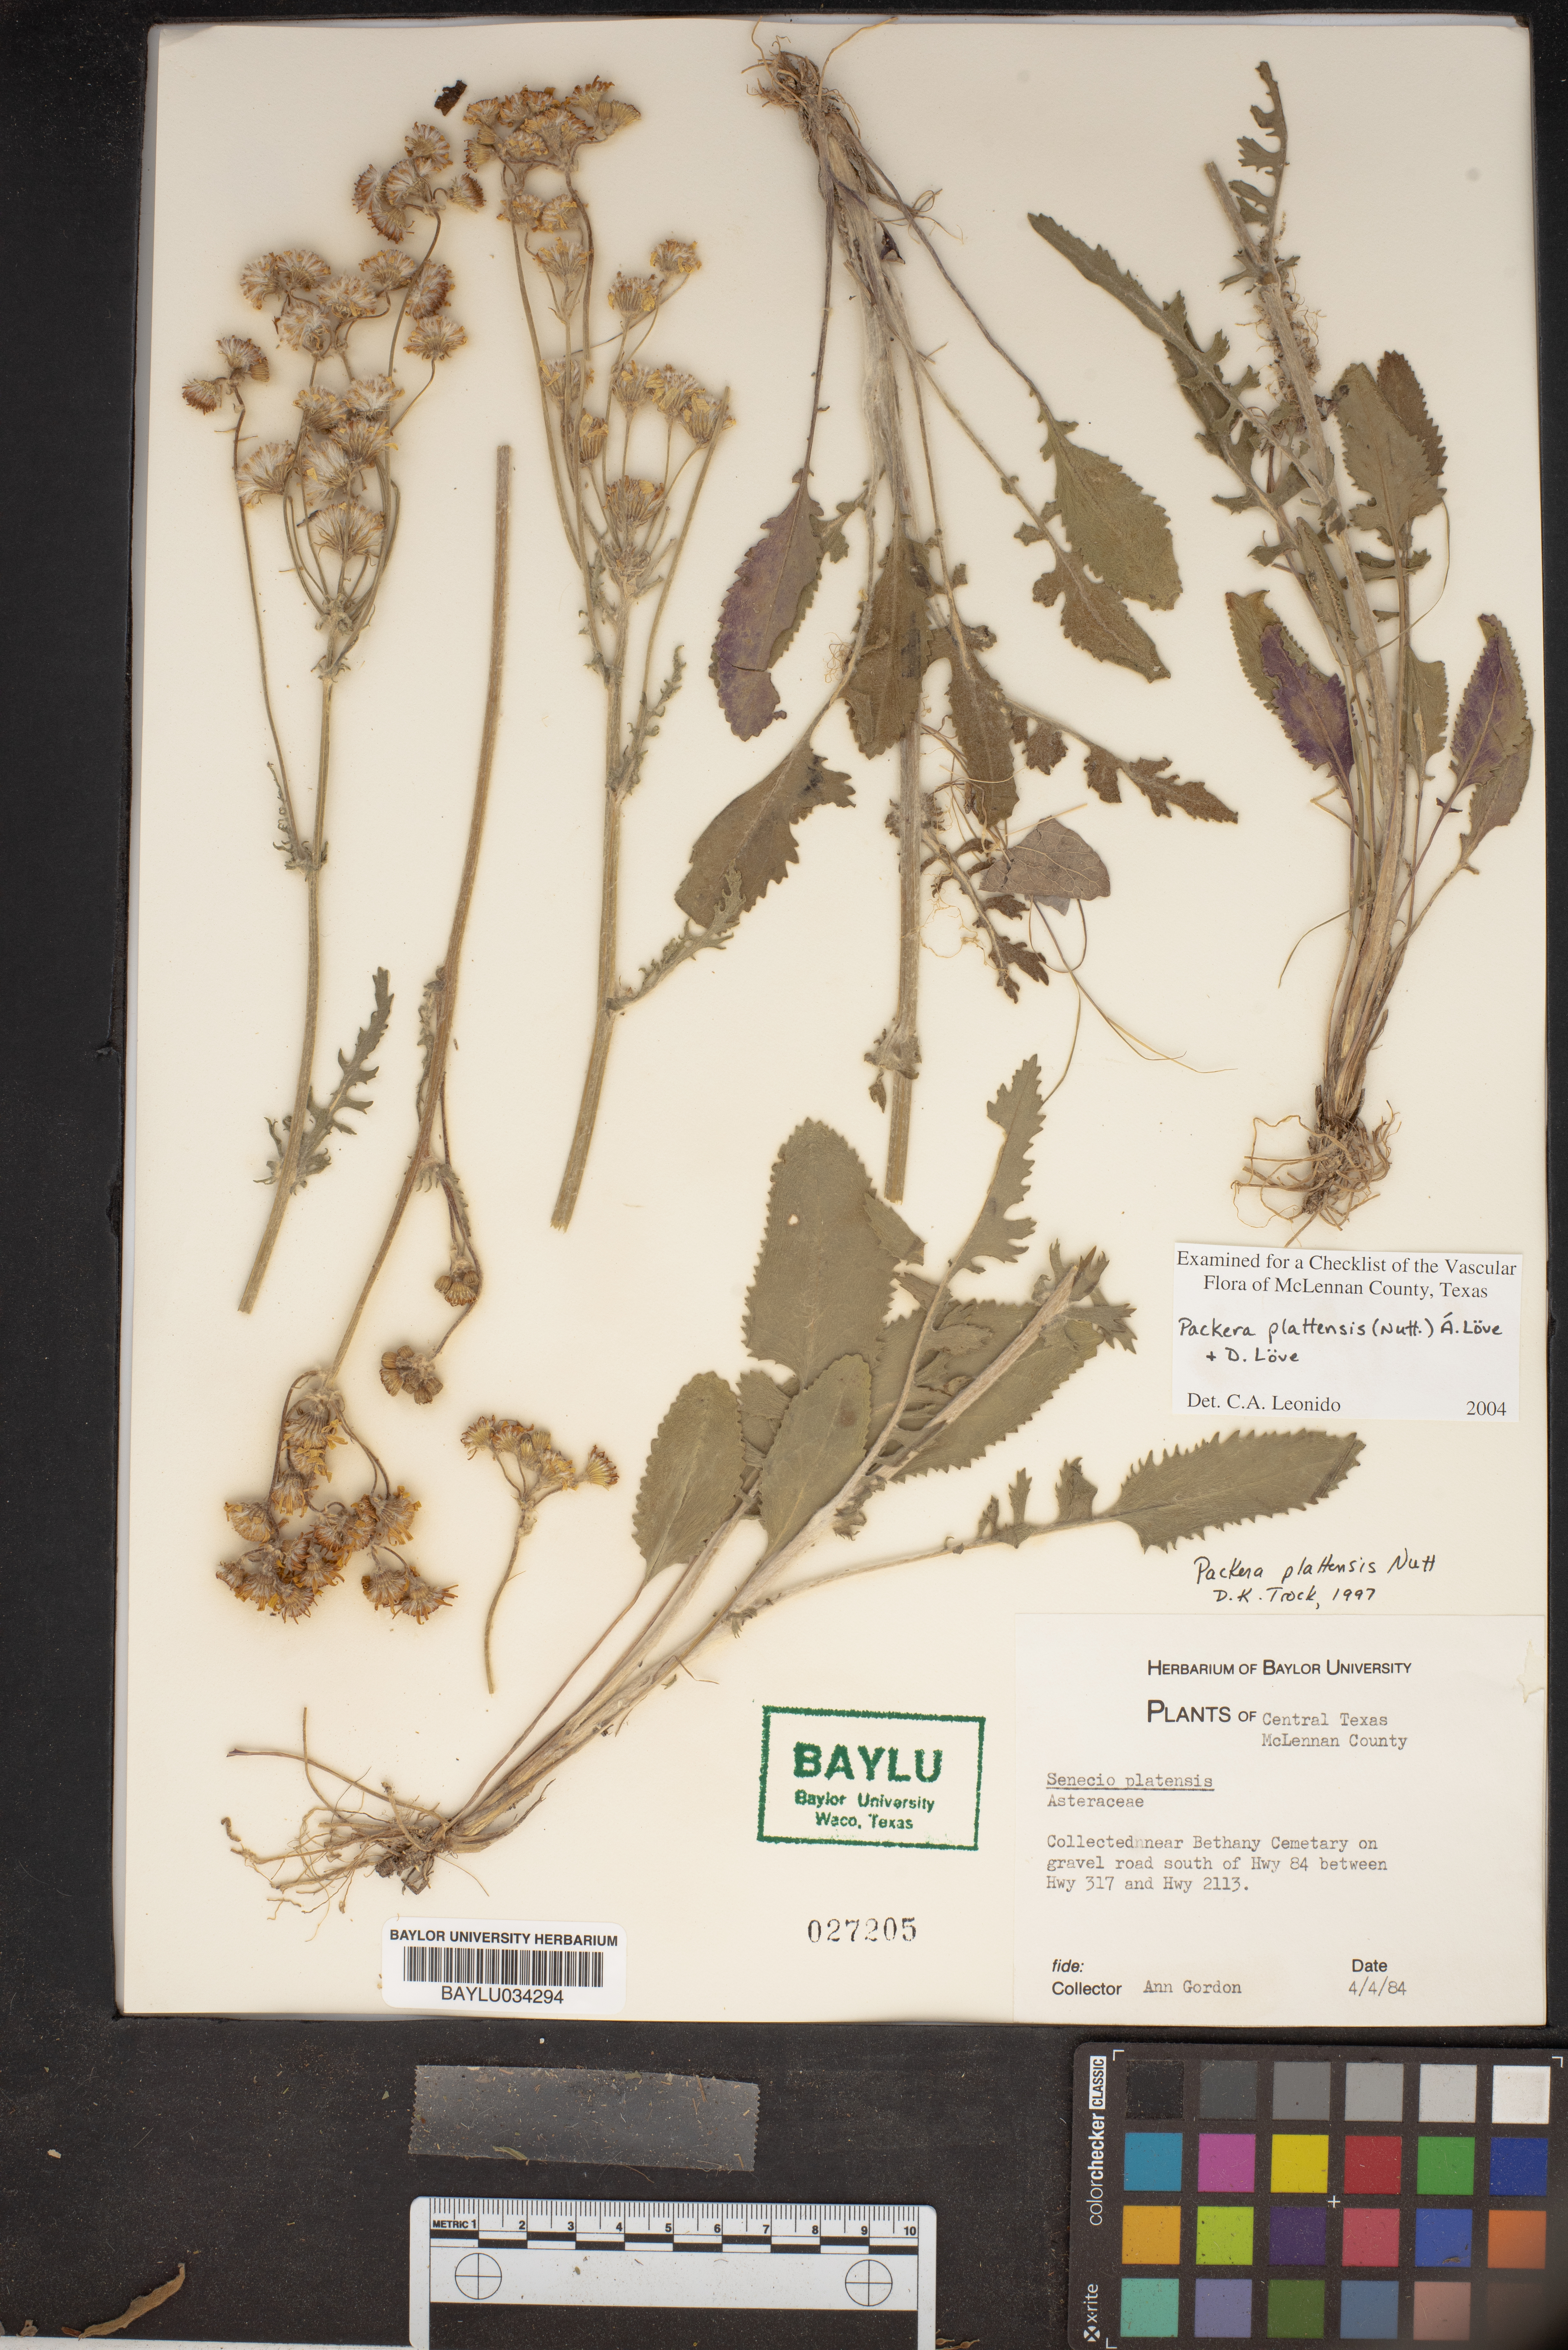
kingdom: Plantae
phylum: Tracheophyta
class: Magnoliopsida
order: Asterales
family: Asteraceae
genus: Packera
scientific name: Packera plattensis
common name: Prairie groundsel
